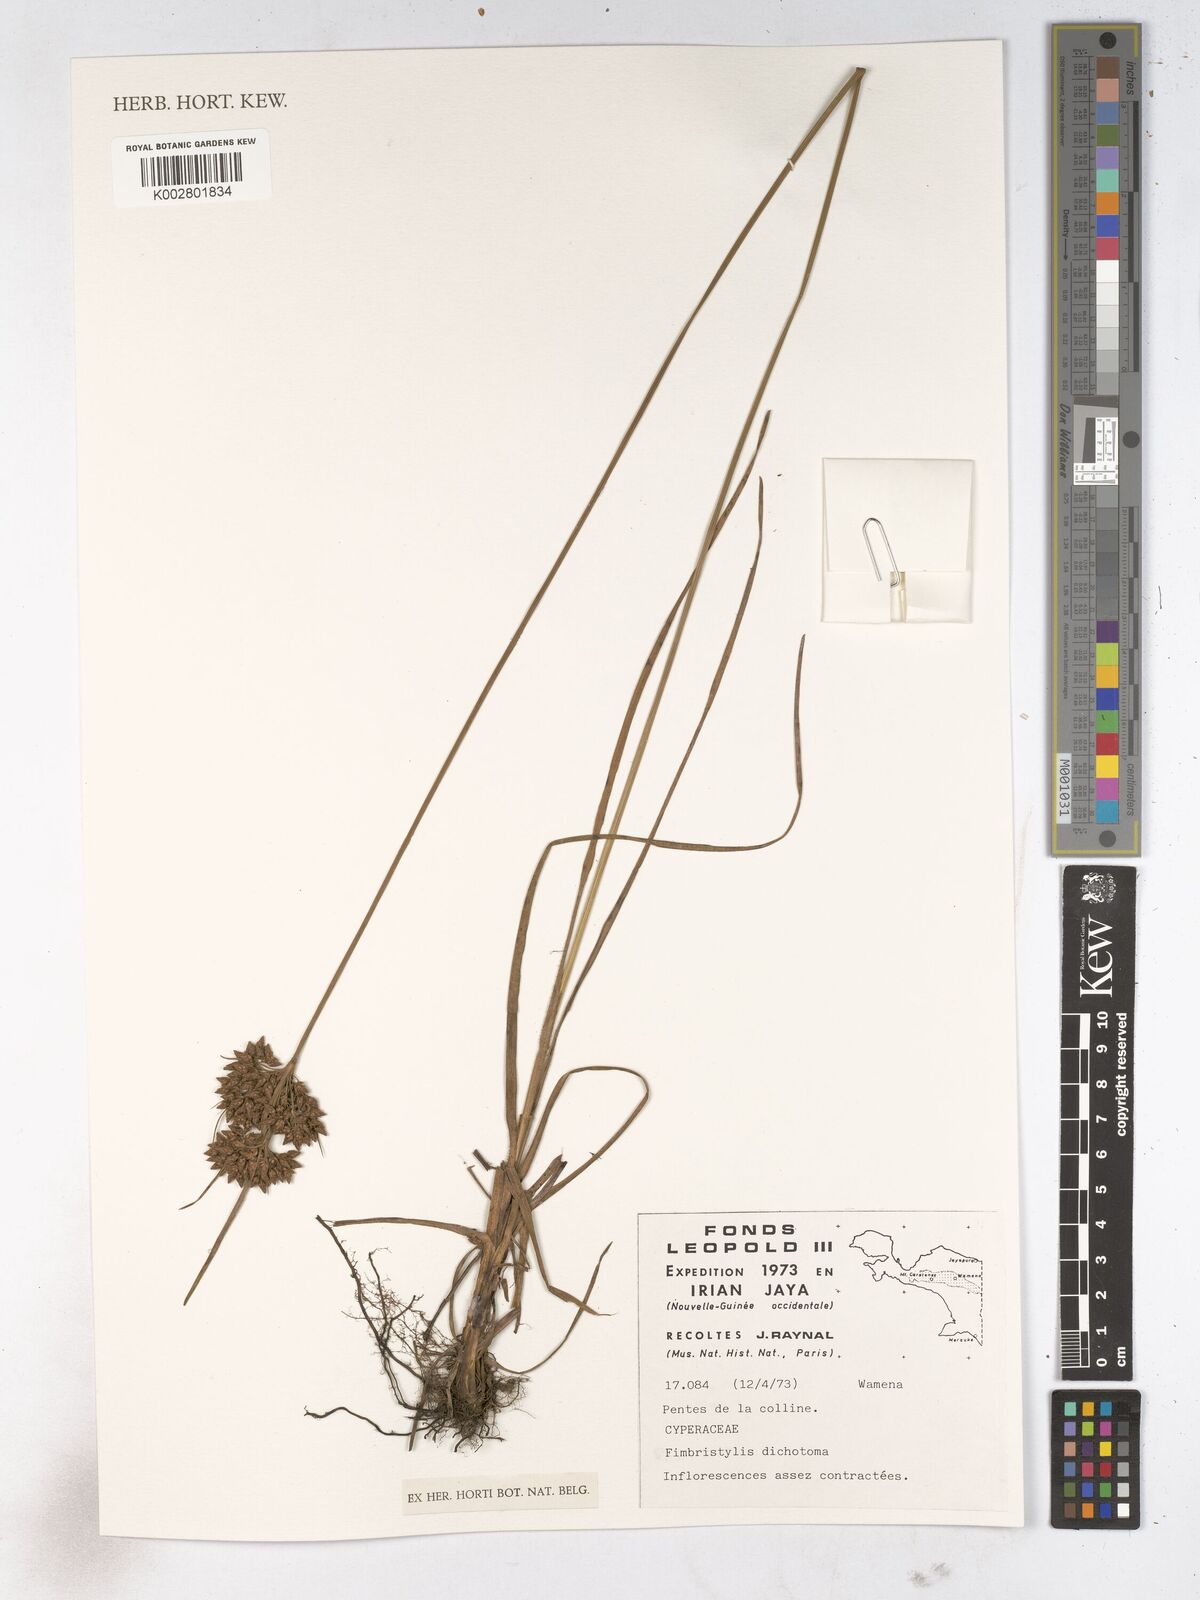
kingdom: Plantae
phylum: Tracheophyta
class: Liliopsida
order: Poales
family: Cyperaceae
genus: Fimbristylis
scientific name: Fimbristylis dichotoma
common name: Forked fimbry
